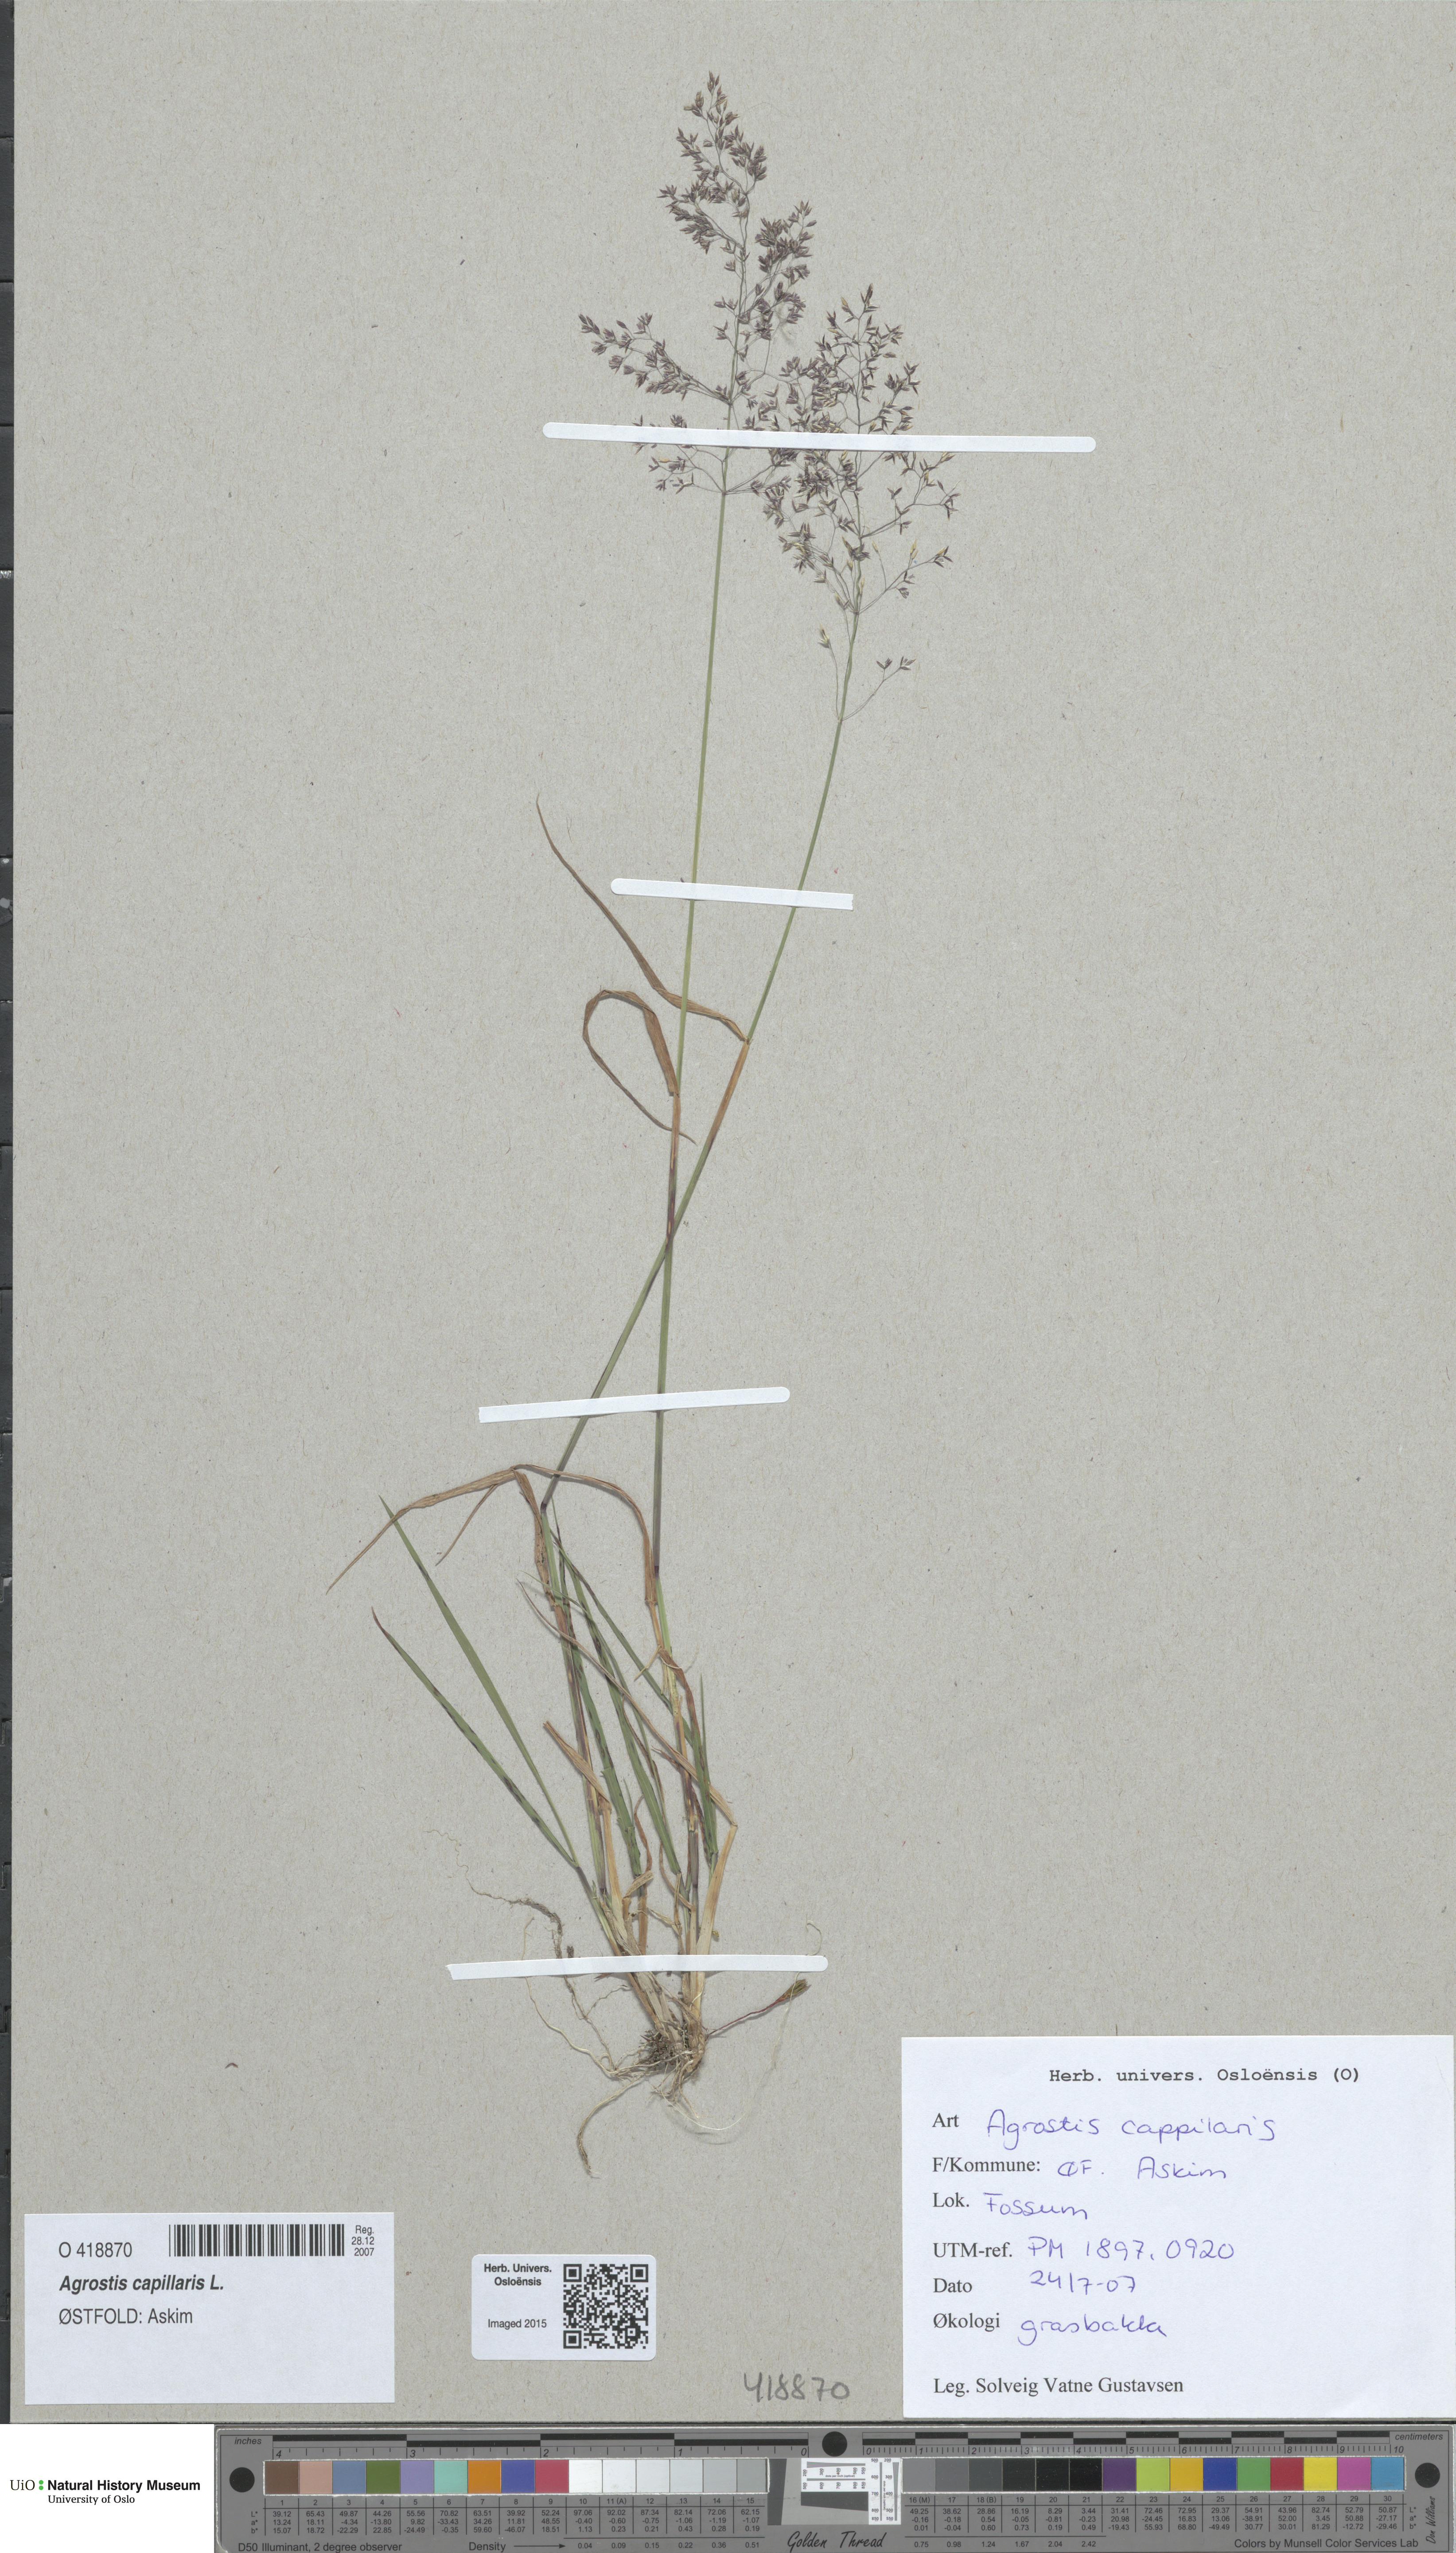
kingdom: Plantae
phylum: Tracheophyta
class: Liliopsida
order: Poales
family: Poaceae
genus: Agrostis
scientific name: Agrostis capillaris
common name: Colonial bentgrass
